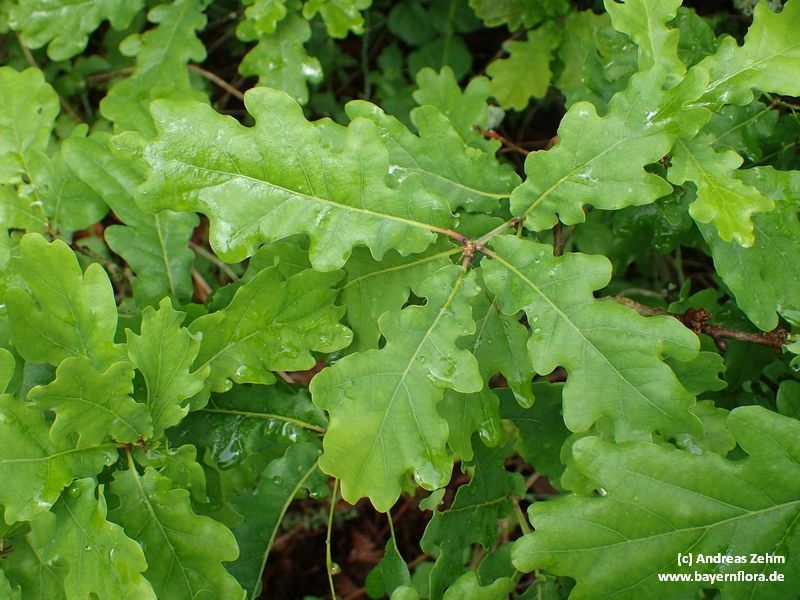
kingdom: Plantae
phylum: Tracheophyta
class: Magnoliopsida
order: Fagales
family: Fagaceae
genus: Quercus
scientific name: Quercus robur
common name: Pedunculate oak
